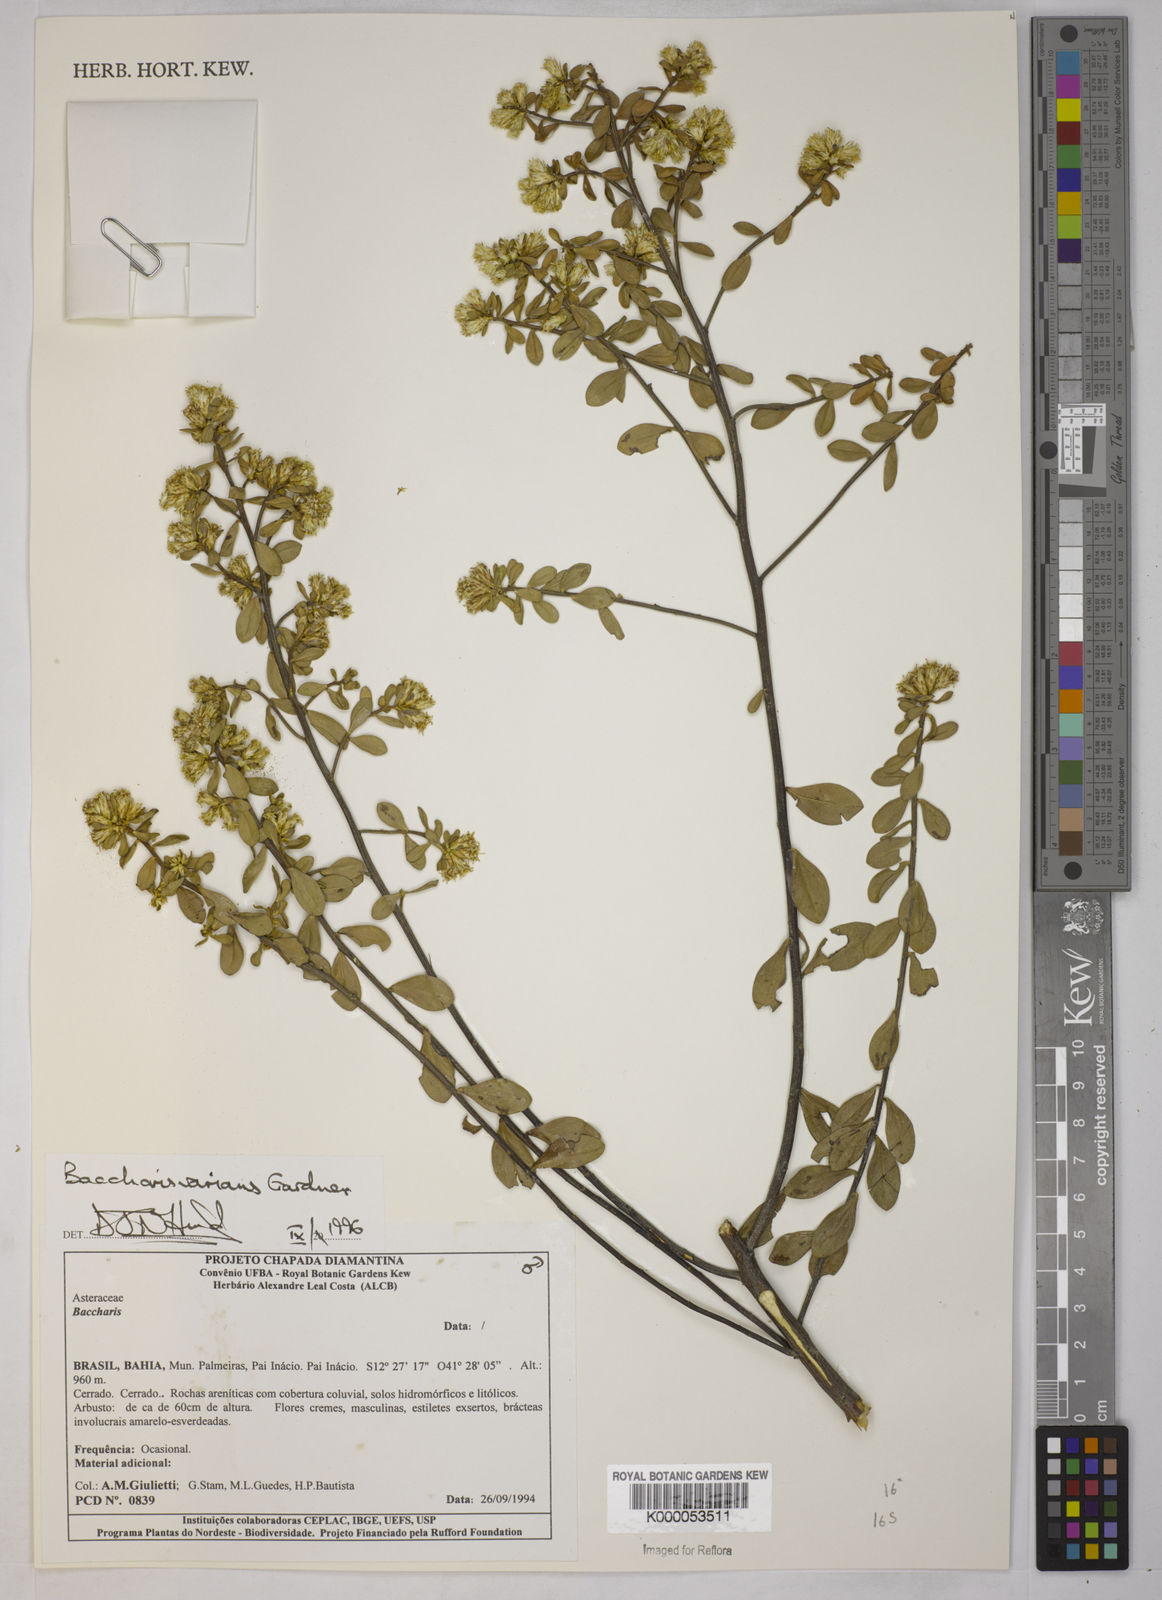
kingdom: Plantae
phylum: Tracheophyta
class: Magnoliopsida
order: Asterales
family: Asteraceae
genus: Baccharis
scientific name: Baccharis varians
